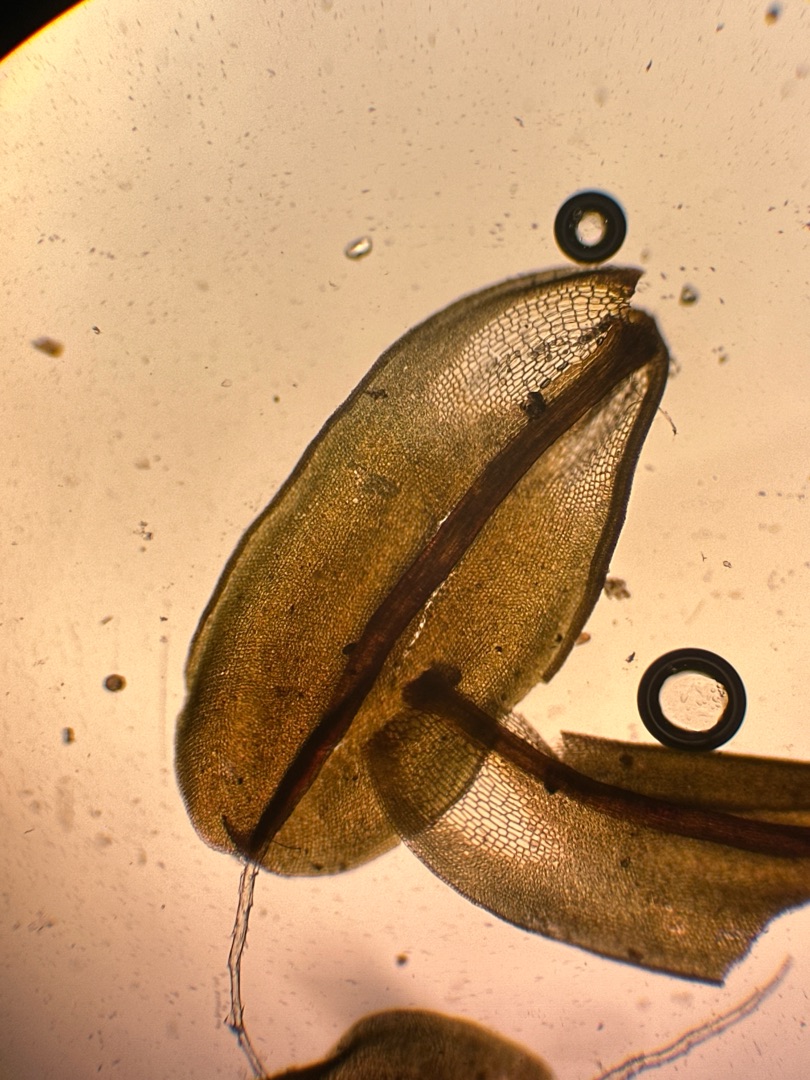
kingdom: Plantae
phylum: Bryophyta
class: Bryopsida
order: Pottiales
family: Pottiaceae
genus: Syntrichia
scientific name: Syntrichia ruralis
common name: Tag-hårstjerne
